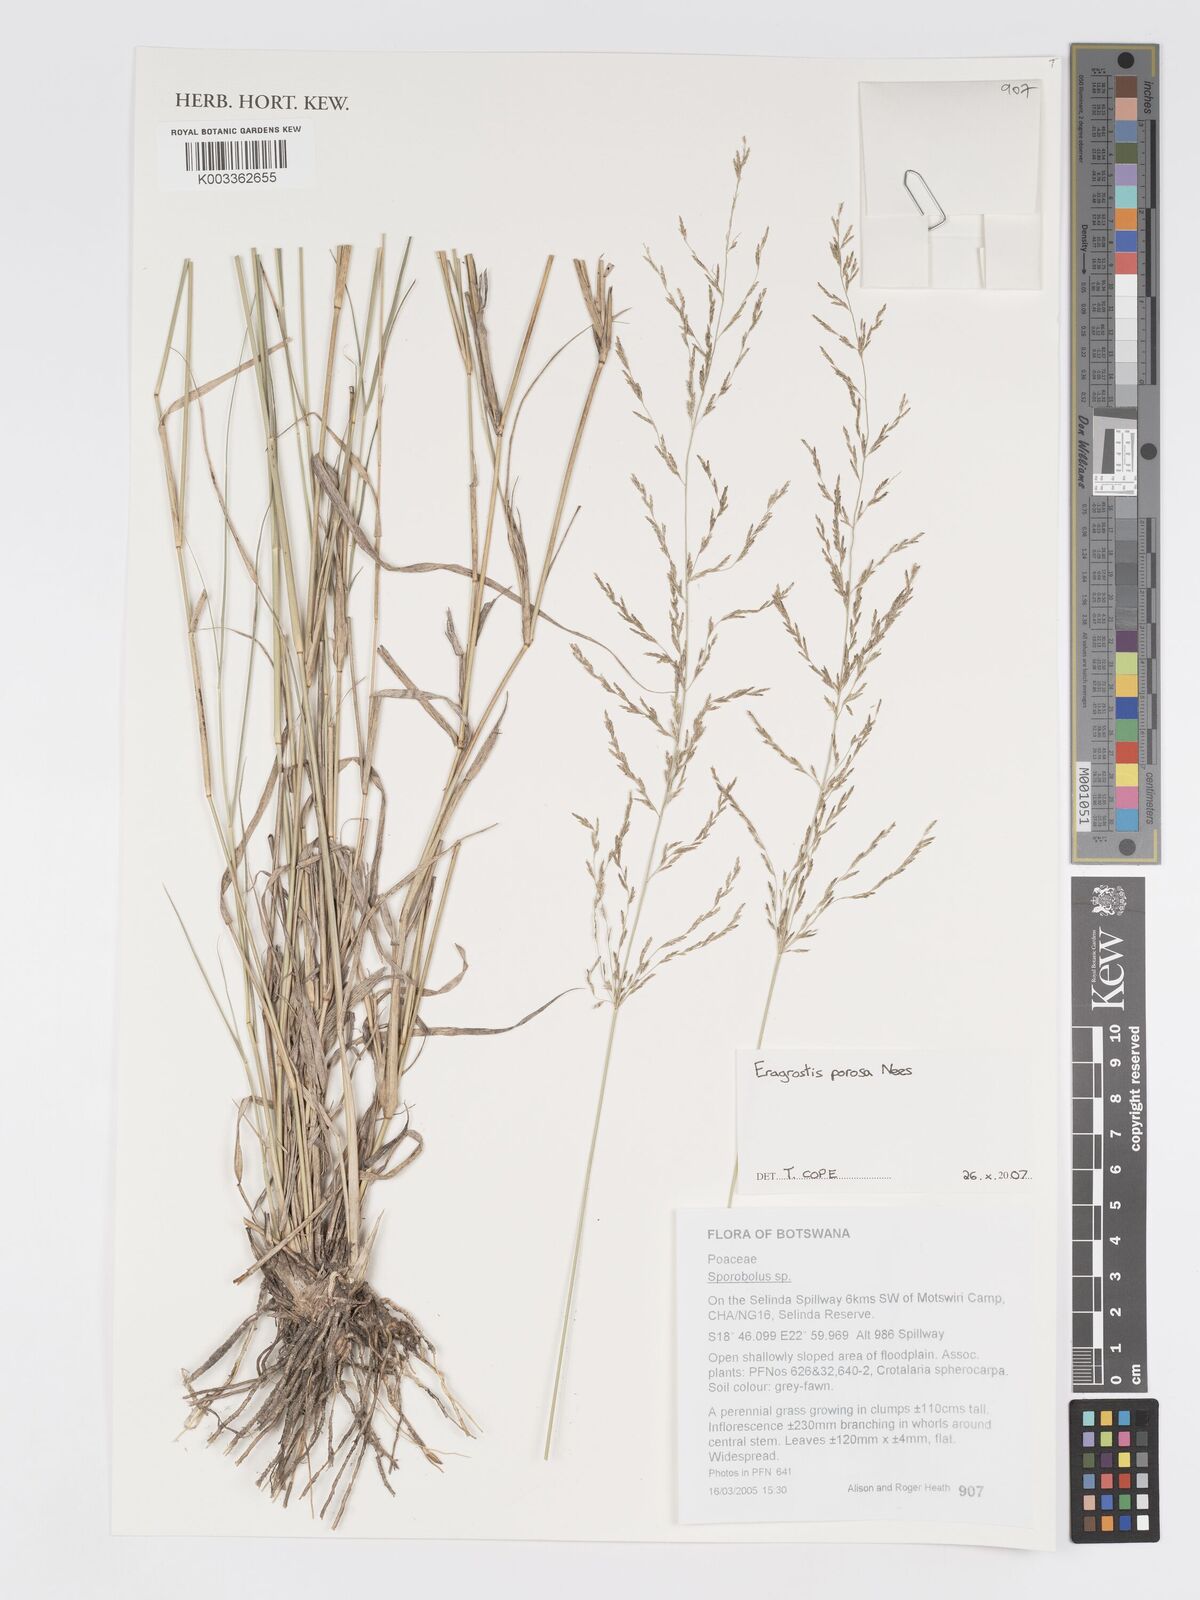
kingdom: Plantae
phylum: Tracheophyta
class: Liliopsida
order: Poales
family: Poaceae
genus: Eragrostis
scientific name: Eragrostis porosa
